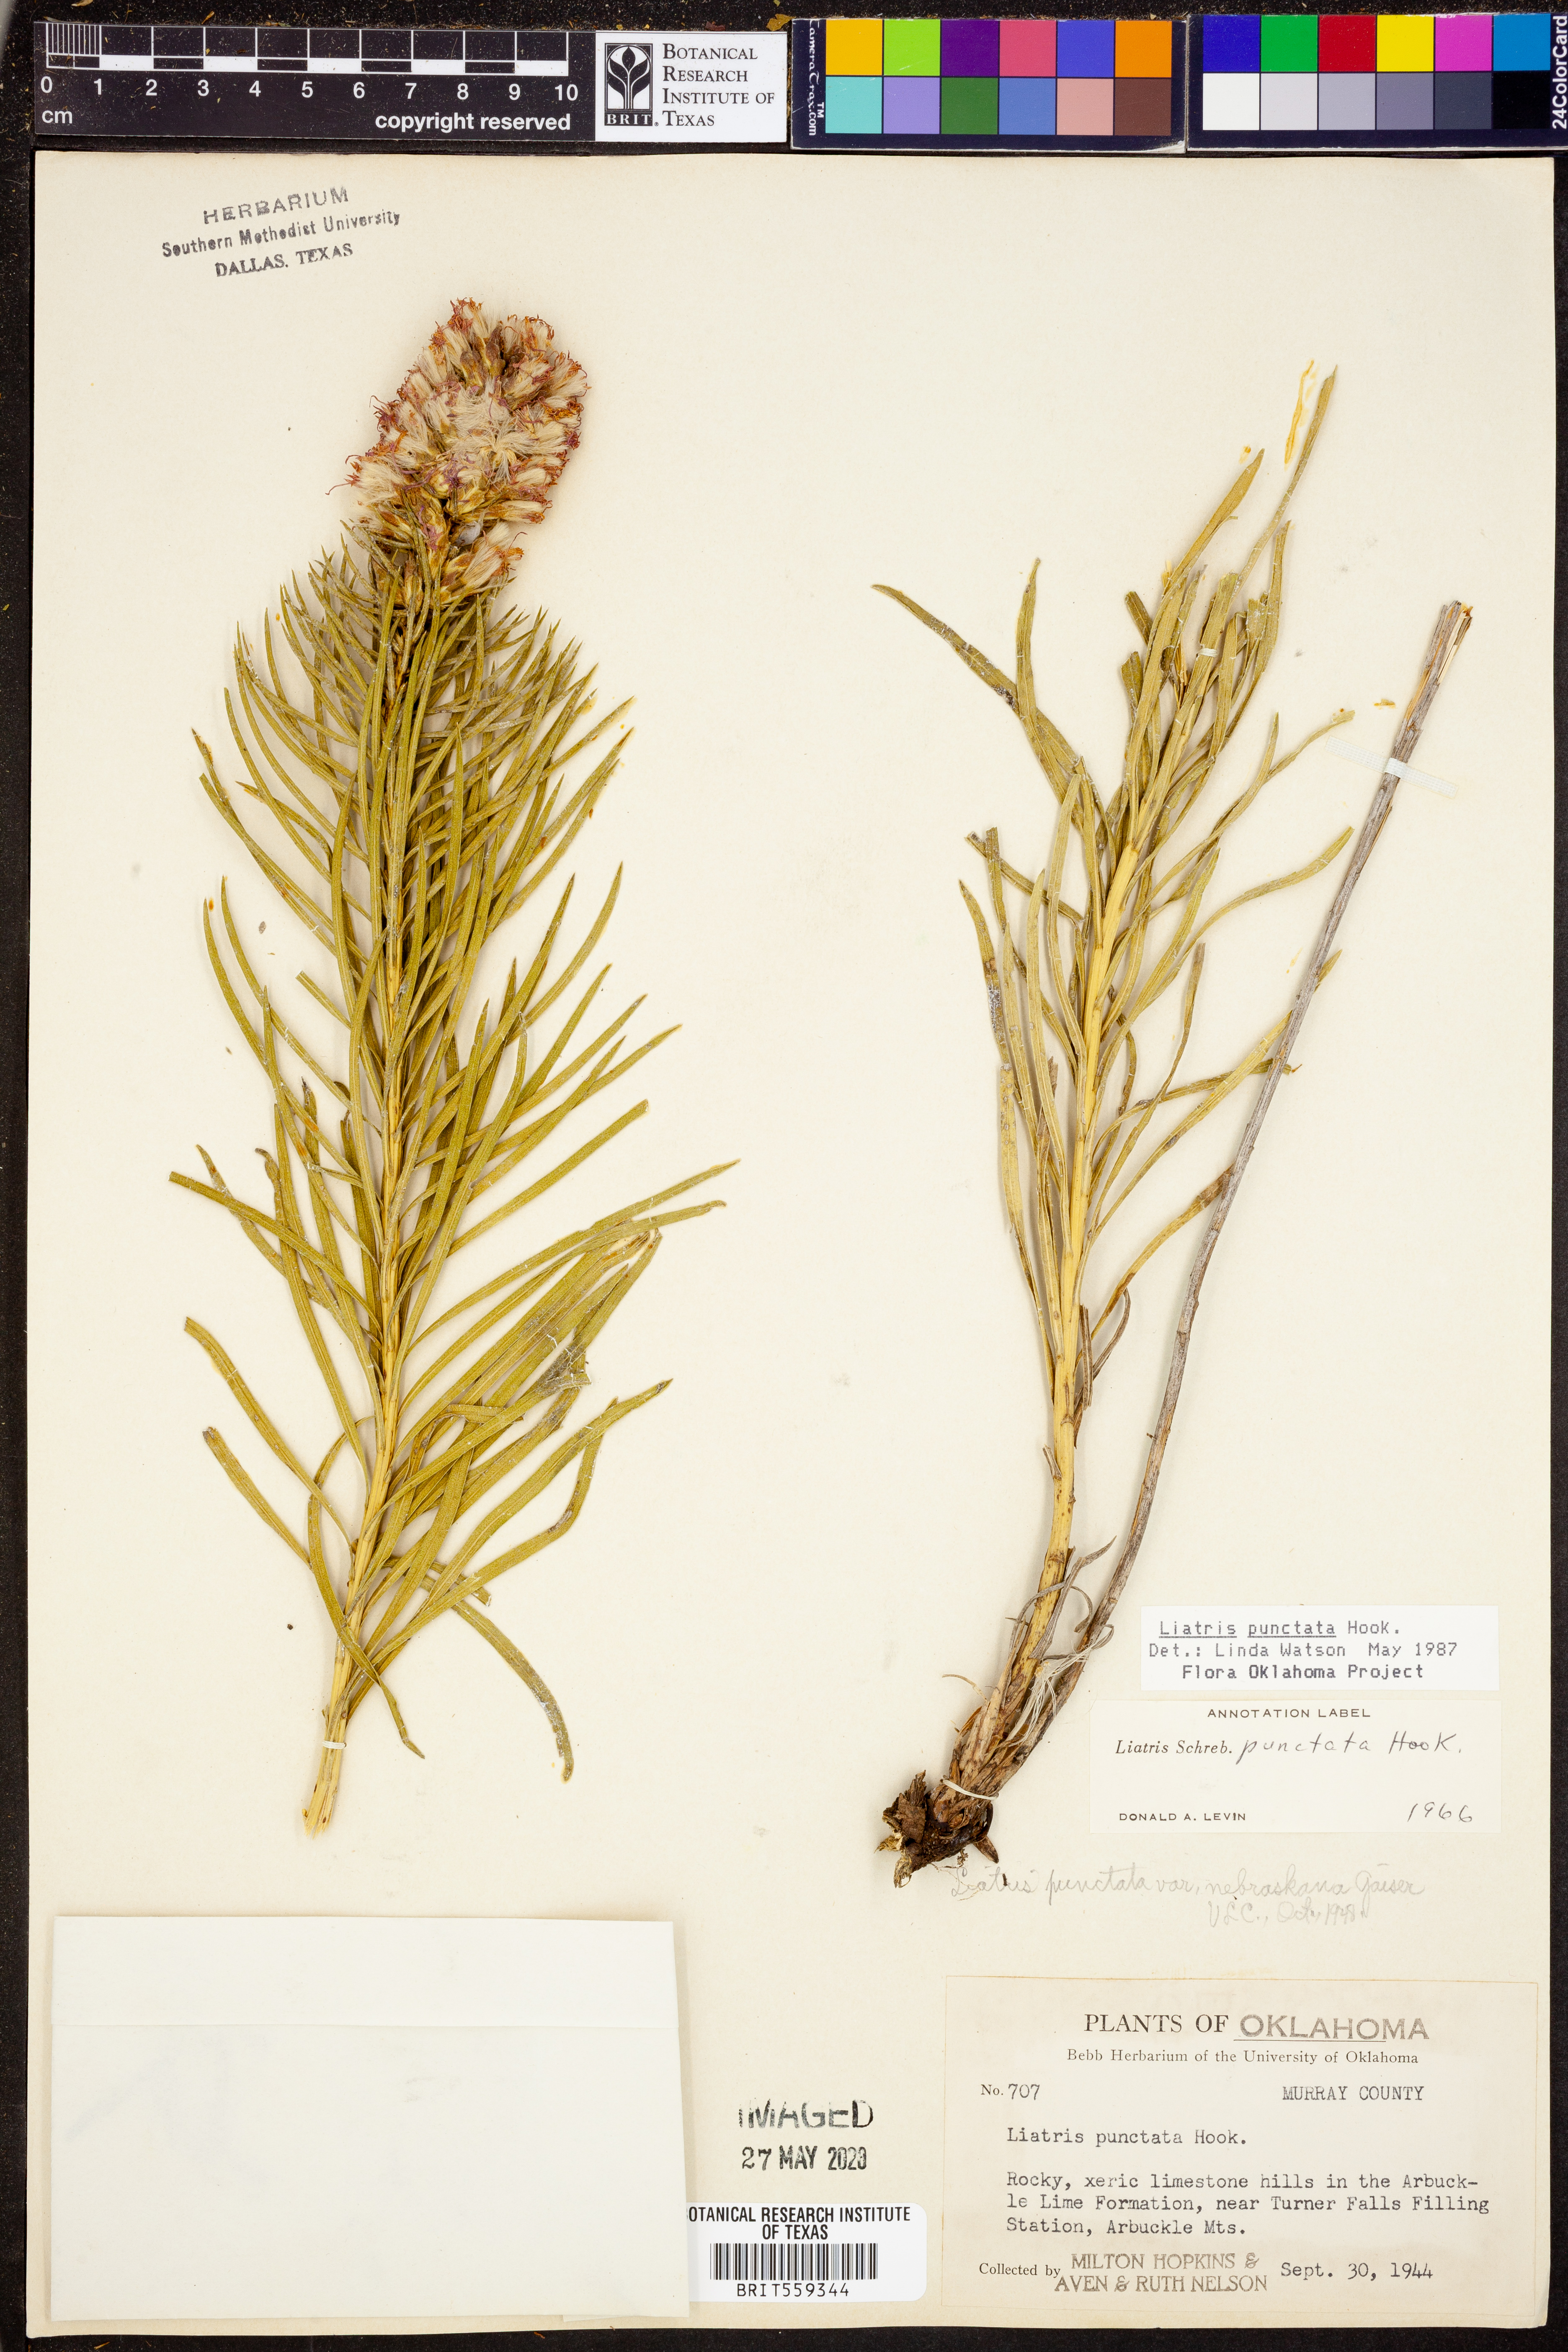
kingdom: Plantae
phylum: Tracheophyta
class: Magnoliopsida
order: Asterales
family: Asteraceae
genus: Liatris
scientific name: Liatris punctata
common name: Dotted gayfeather
